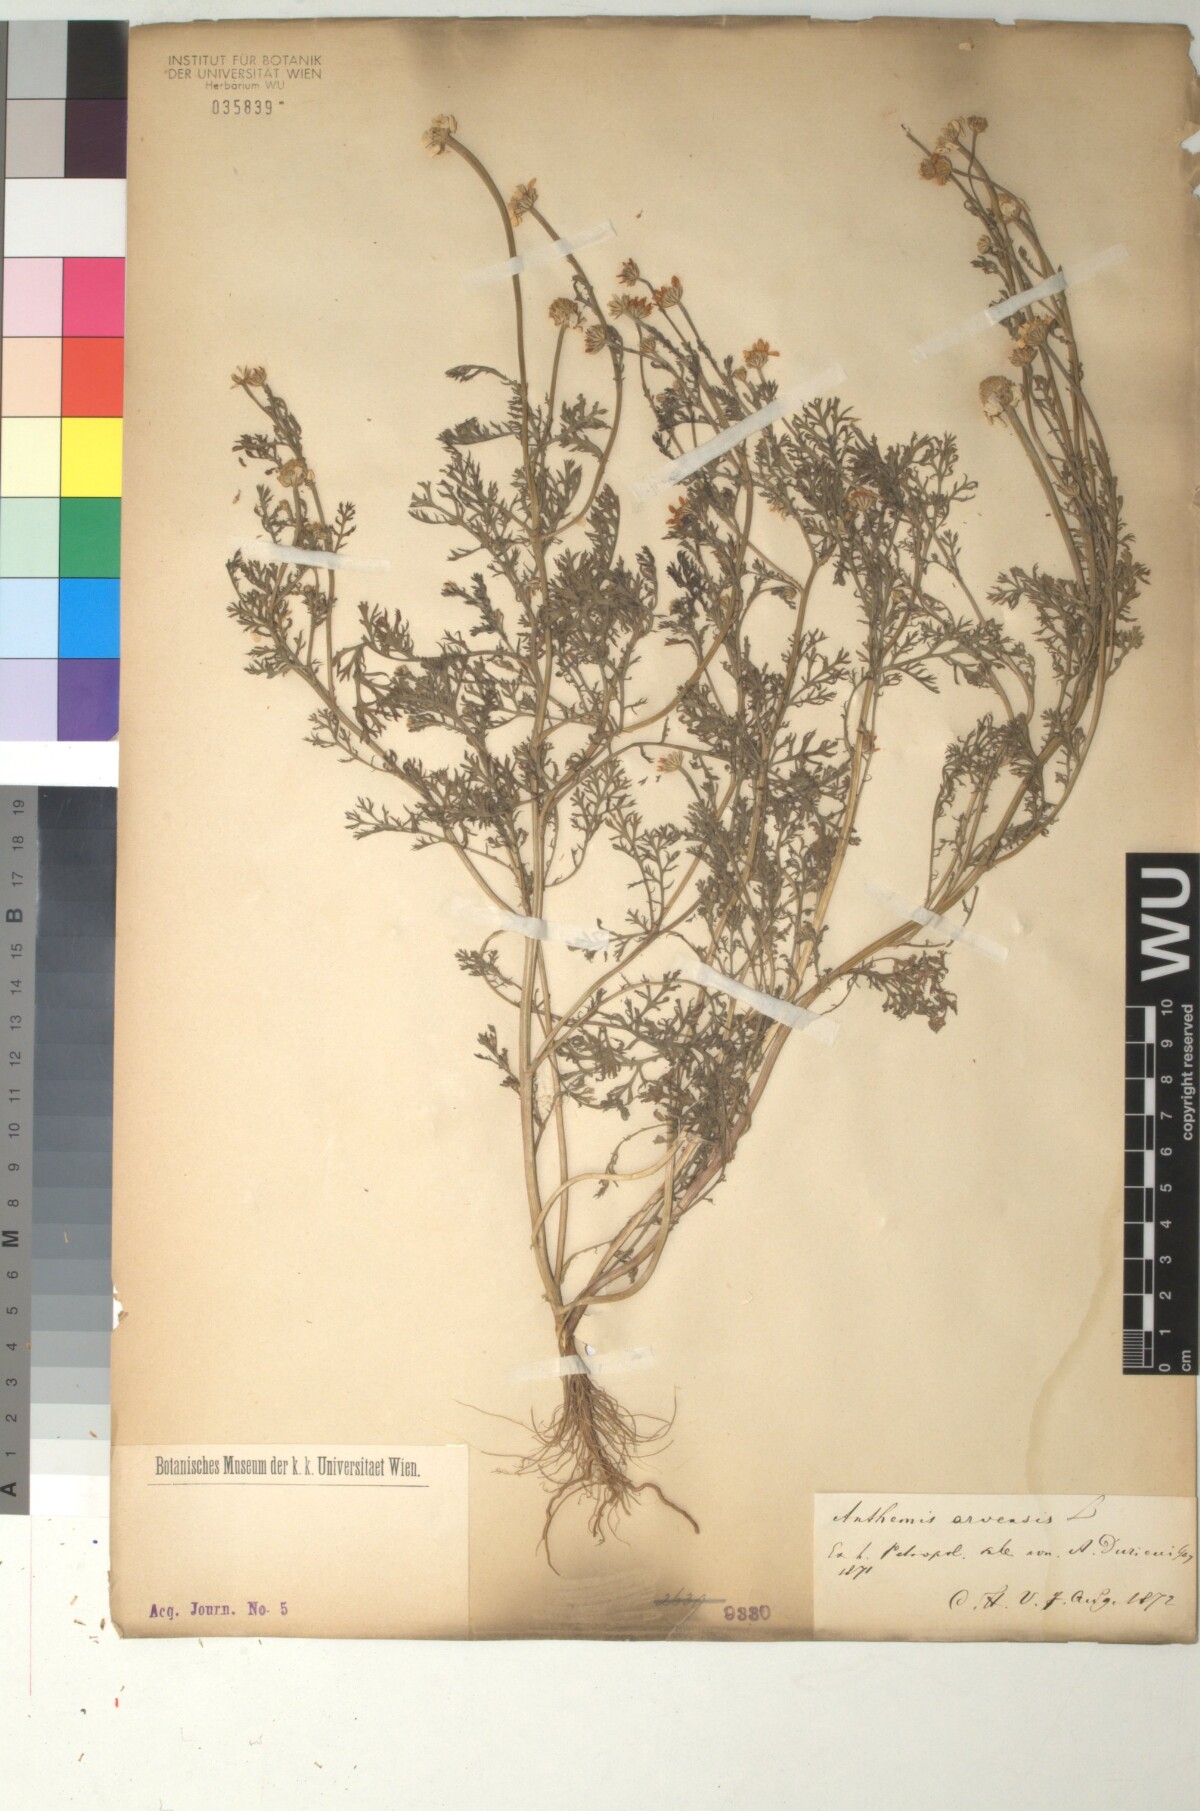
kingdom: Plantae
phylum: Tracheophyta
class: Magnoliopsida
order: Asterales
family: Asteraceae
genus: Anthemis
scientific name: Anthemis arvensis
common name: Corn chamomile
